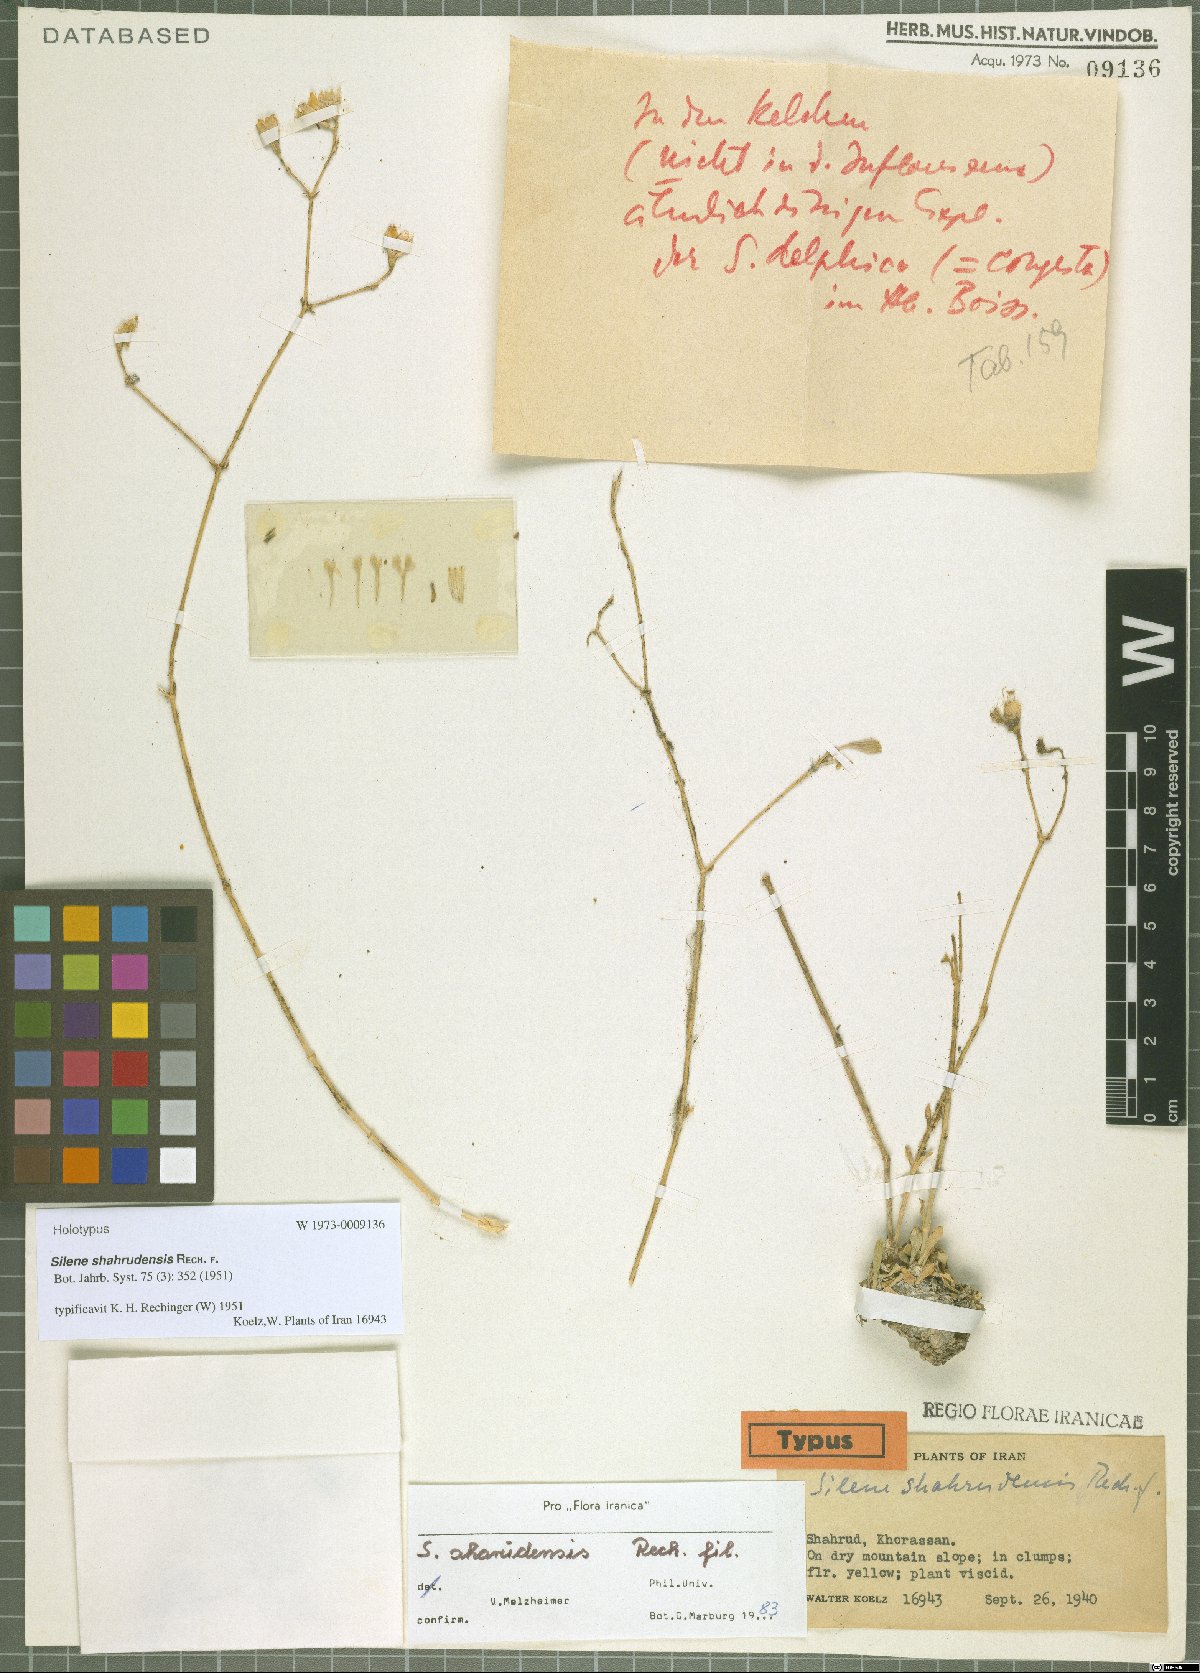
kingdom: Plantae
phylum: Tracheophyta
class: Magnoliopsida
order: Caryophyllales
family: Caryophyllaceae
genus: Silene
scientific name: Silene shahrudensis
